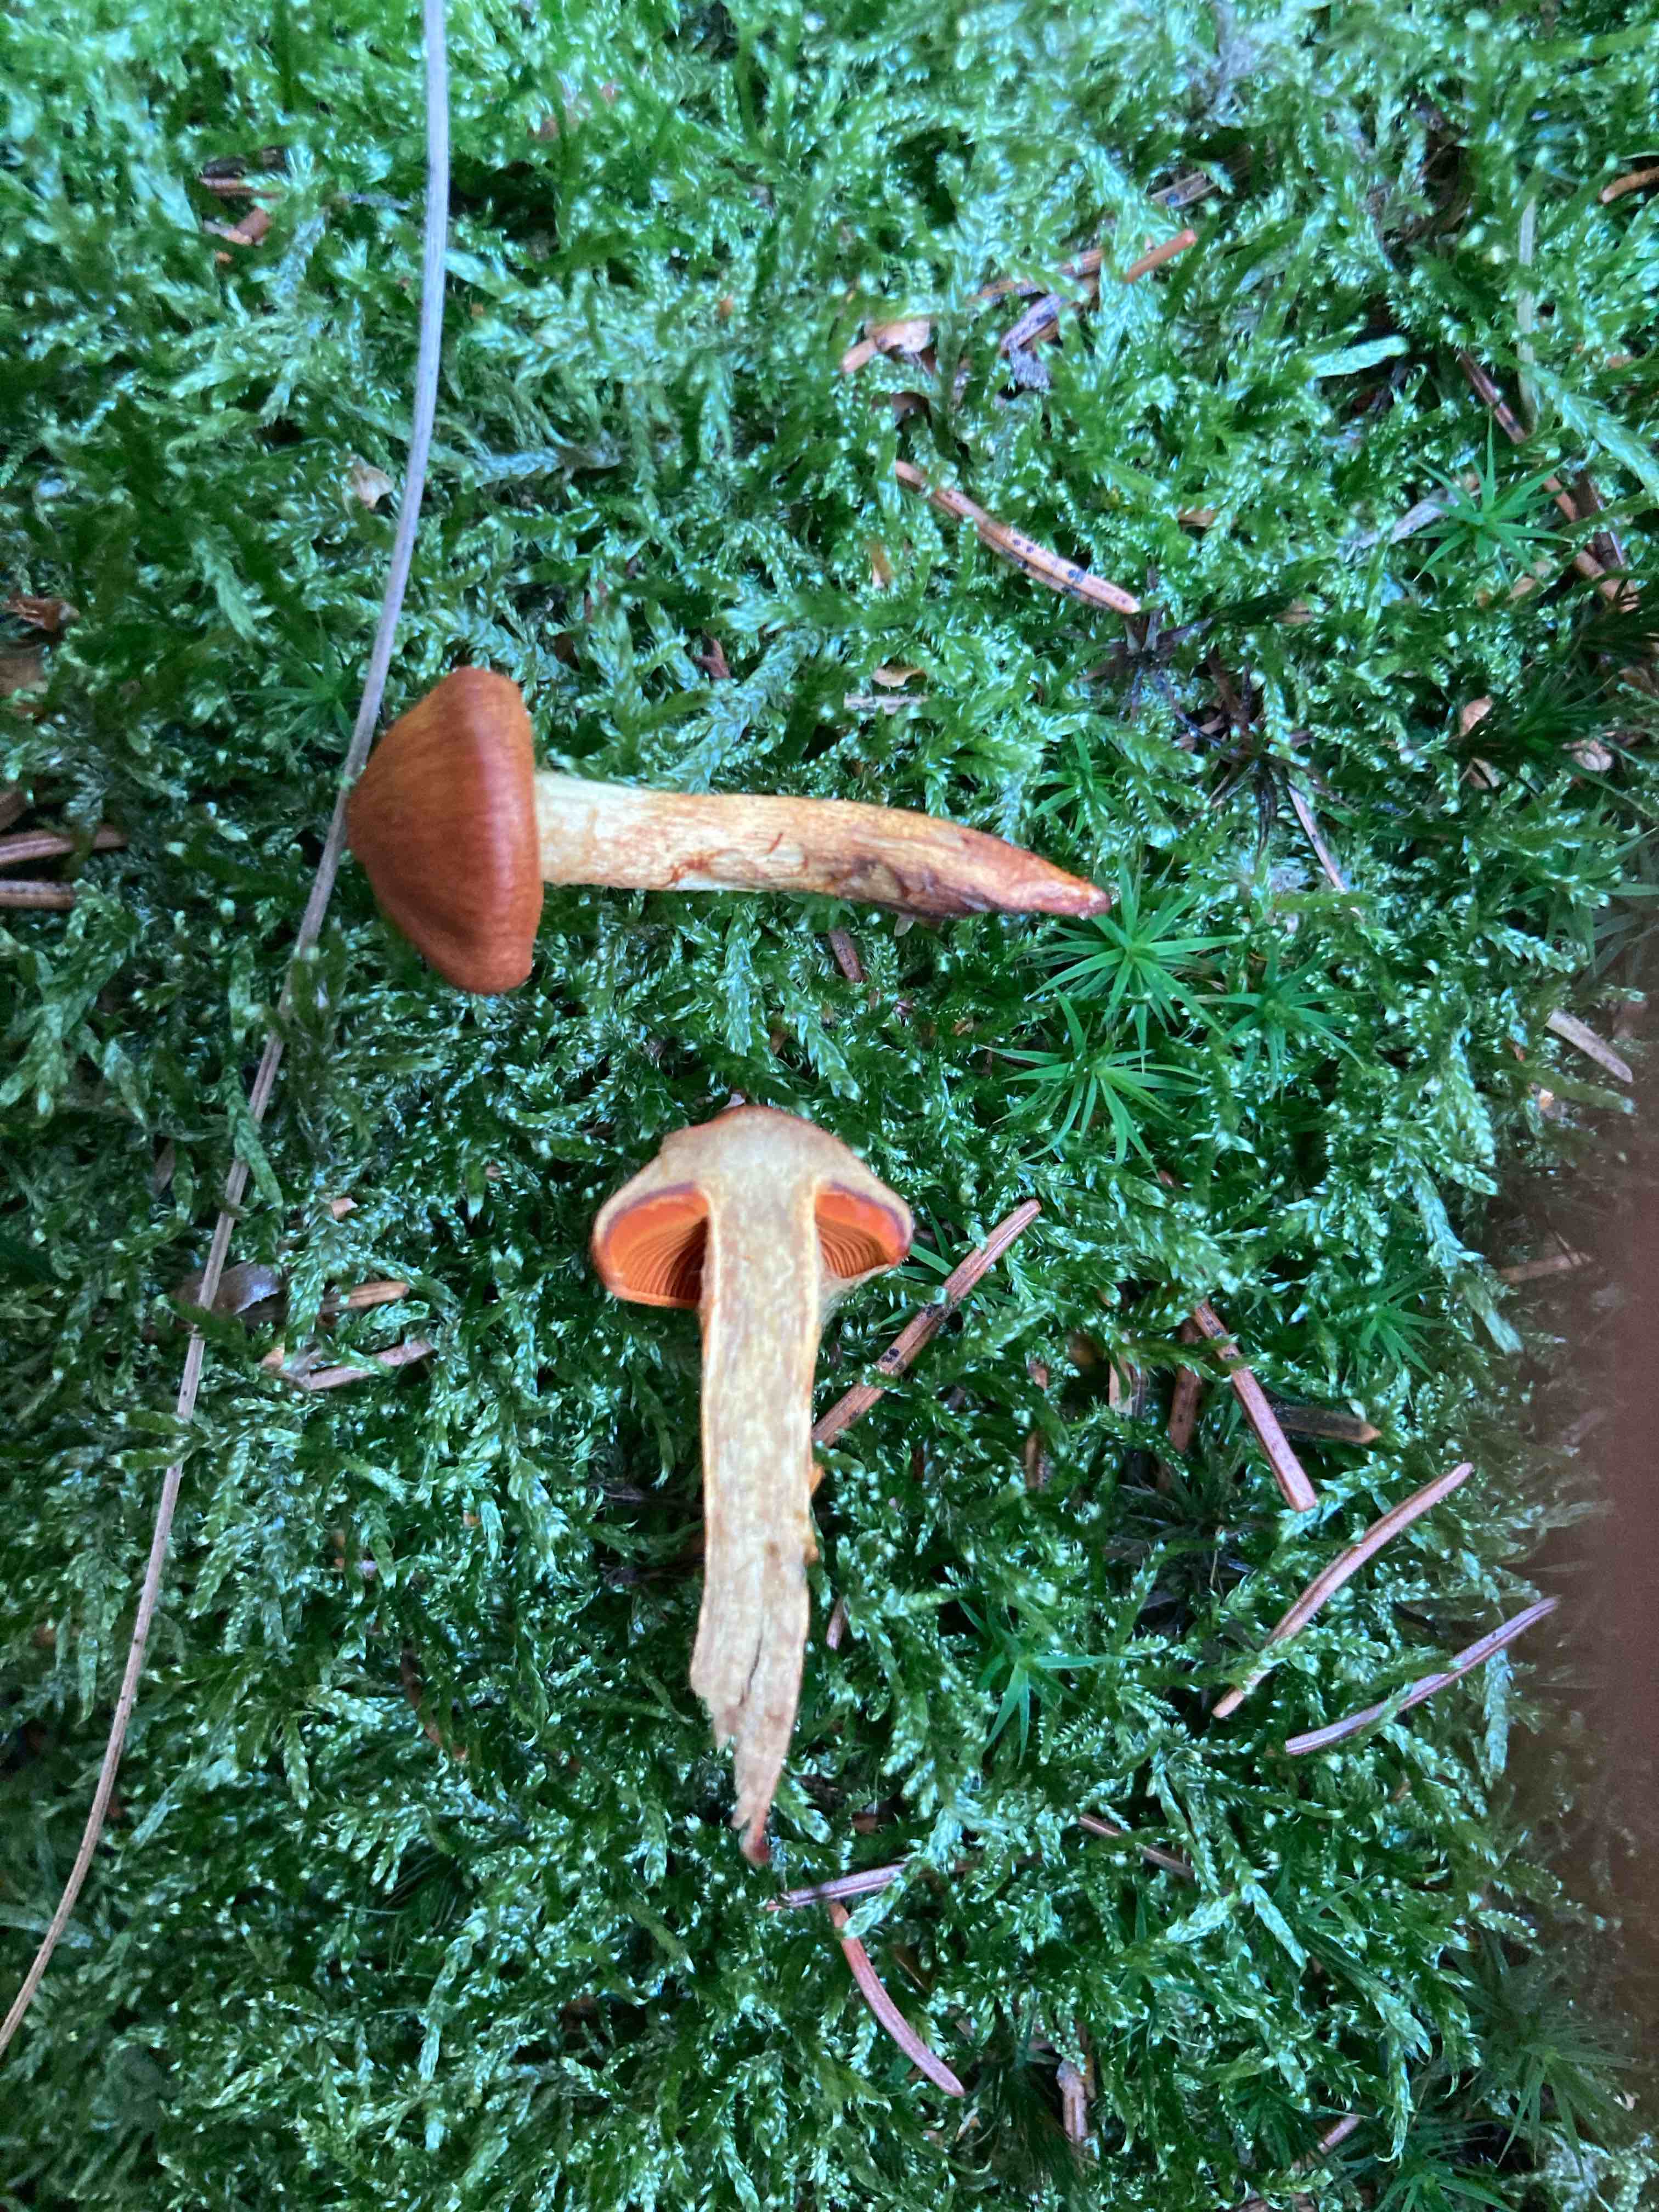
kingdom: Fungi
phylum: Basidiomycota
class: Agaricomycetes
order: Agaricales
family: Cortinariaceae
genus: Cortinarius
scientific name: Cortinarius
